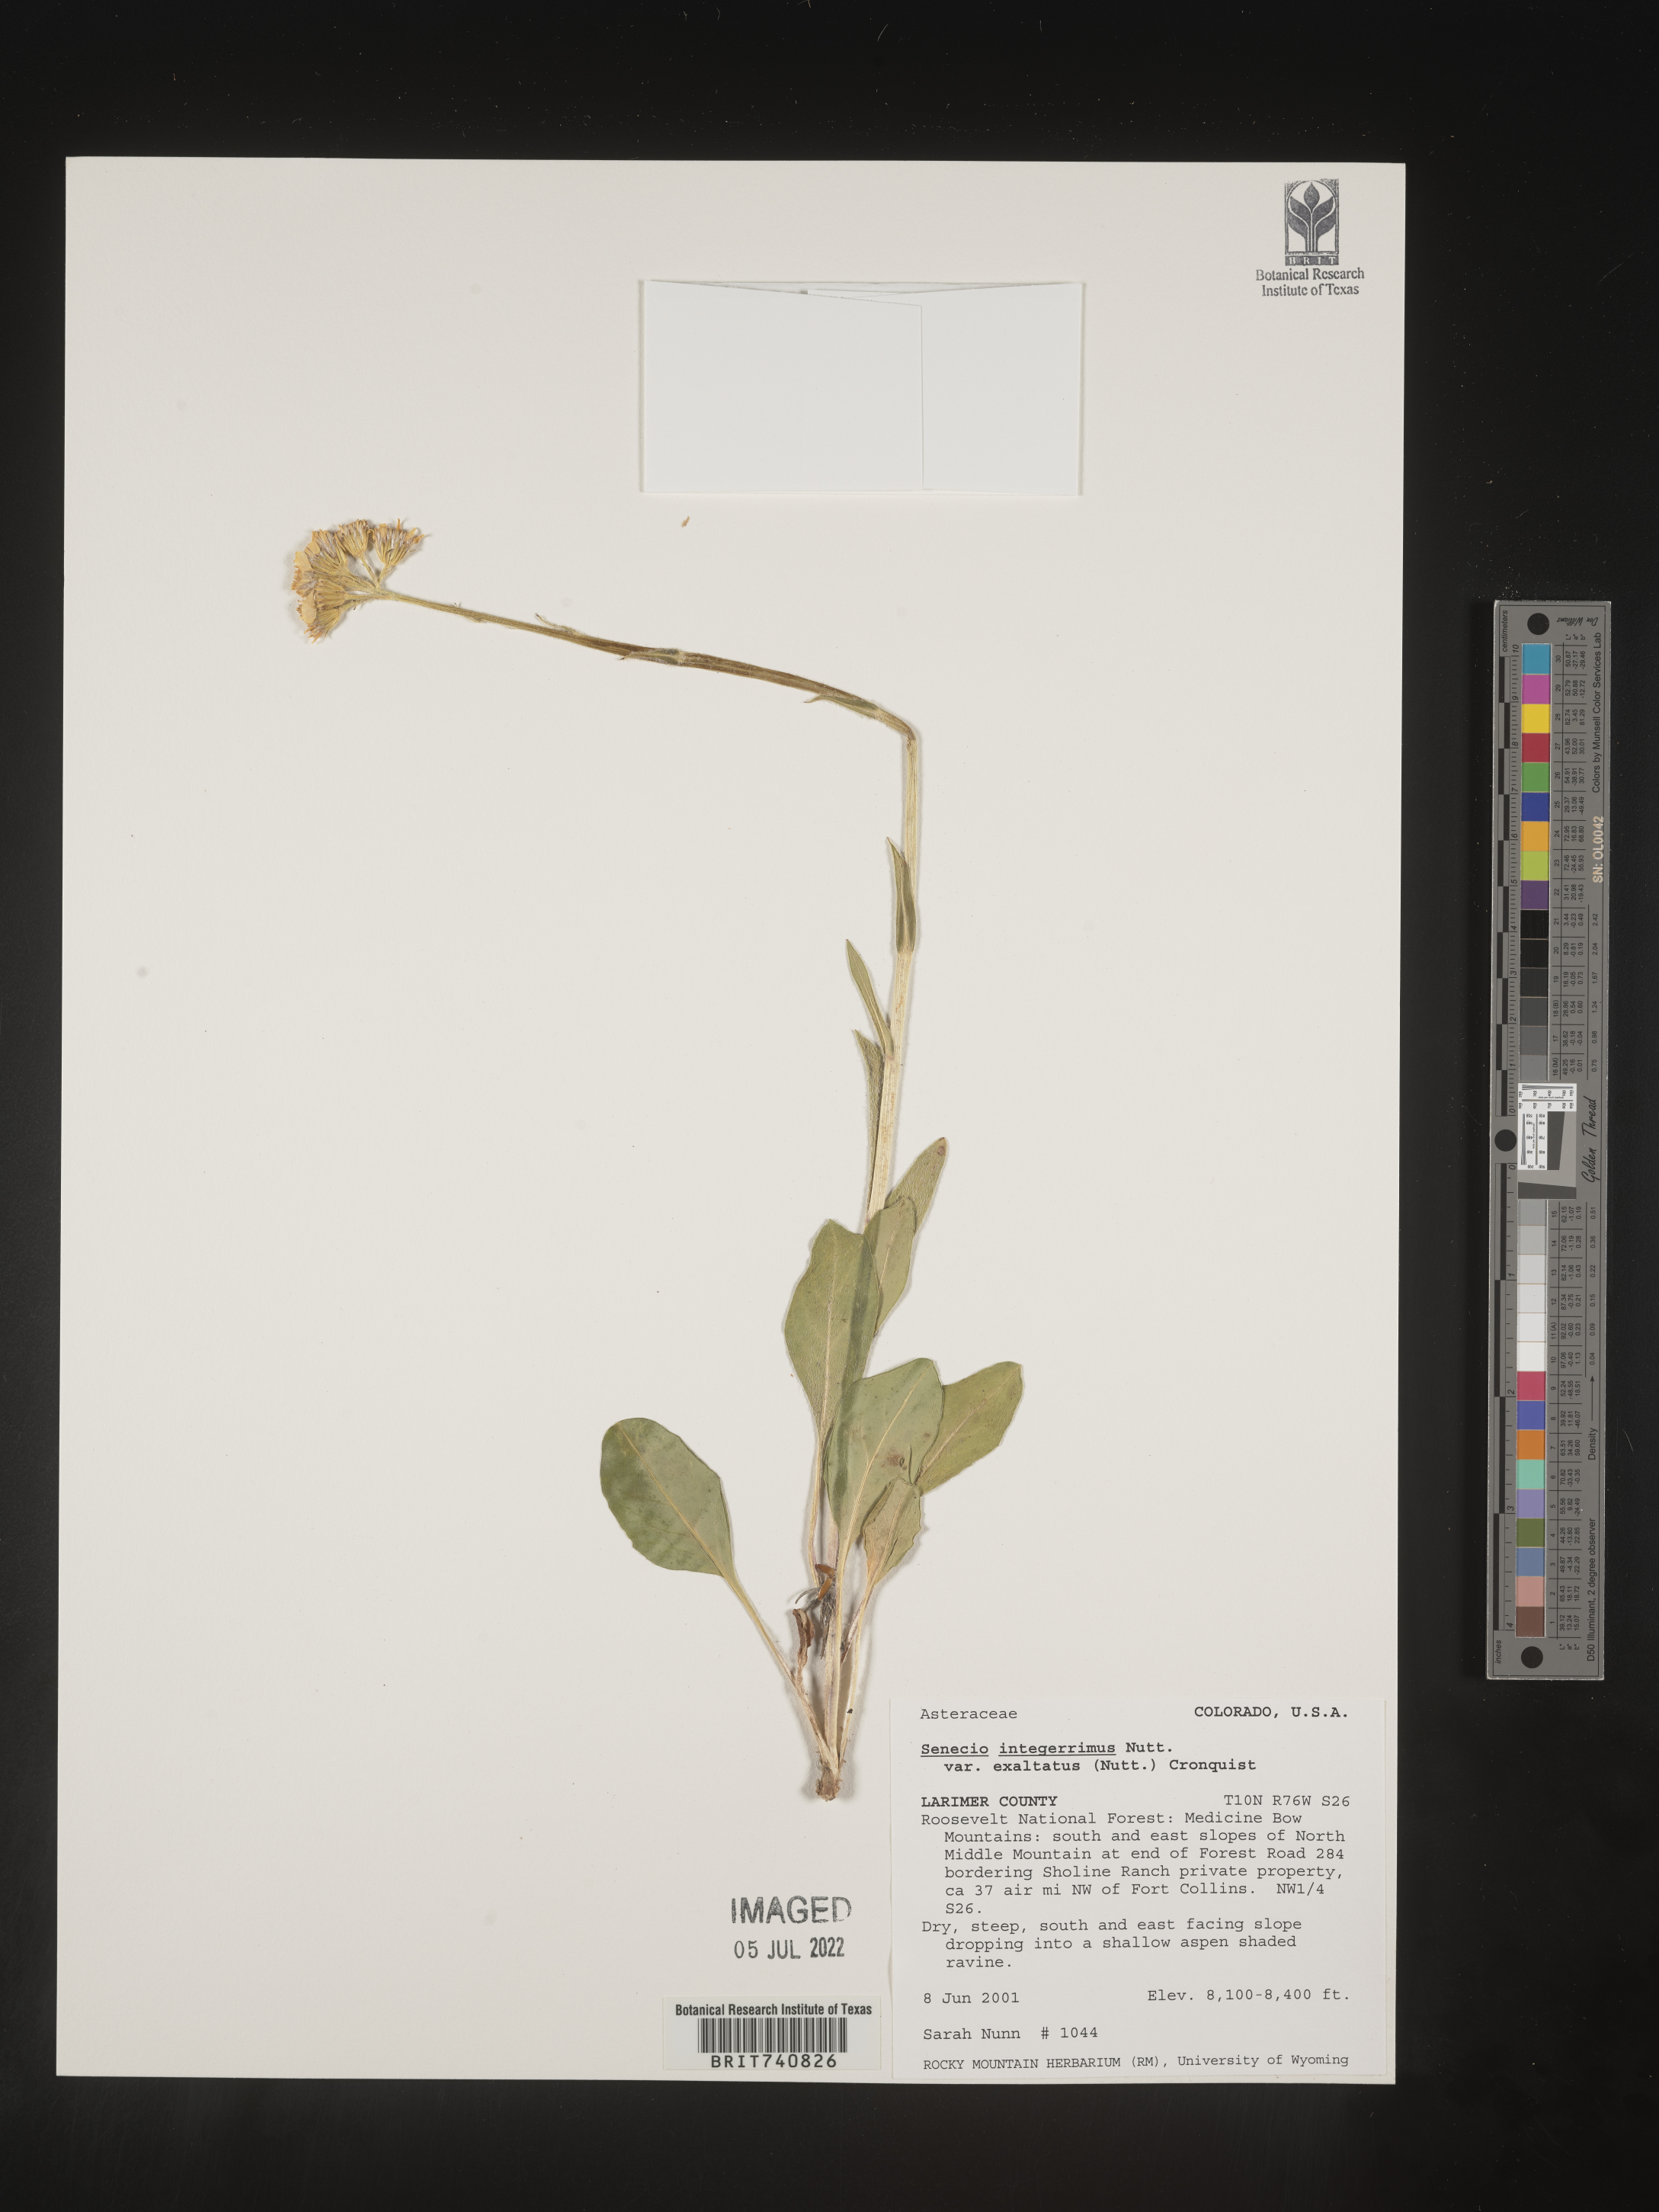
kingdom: Plantae
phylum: Tracheophyta
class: Magnoliopsida
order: Asterales
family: Asteraceae
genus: Senecio
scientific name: Senecio integerrimus
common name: Gaugeplant
